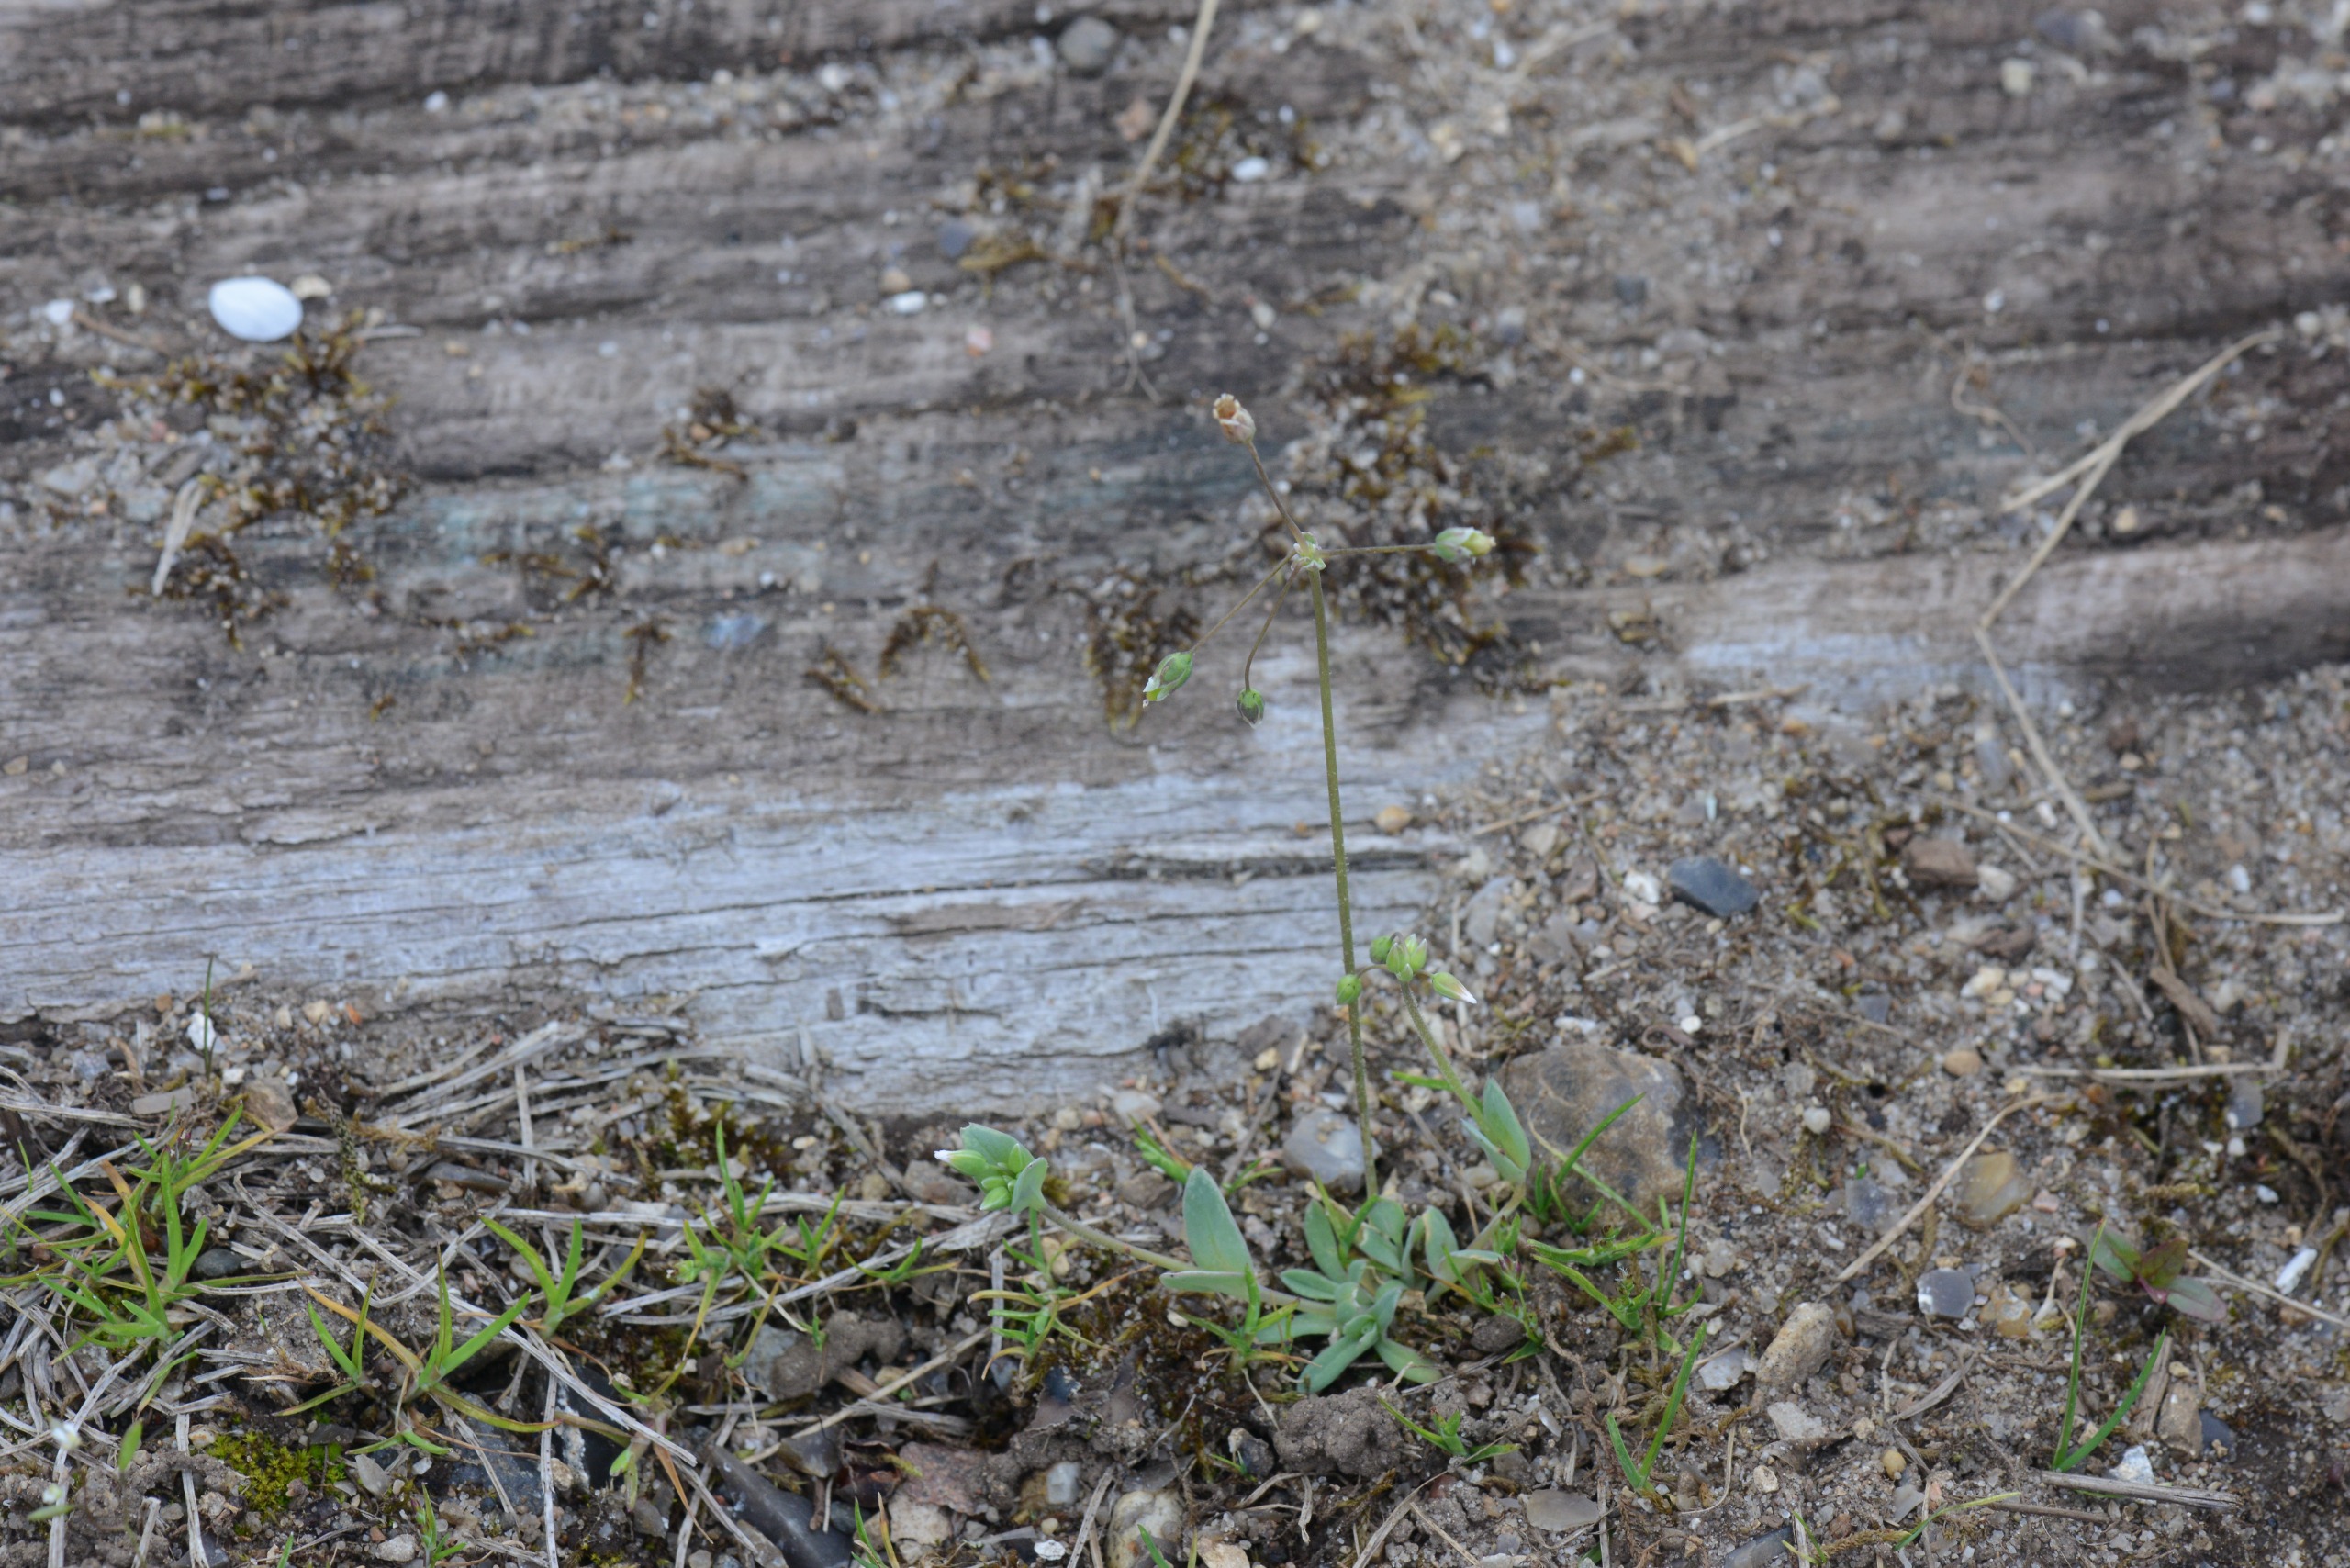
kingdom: Plantae
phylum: Tracheophyta
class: Magnoliopsida
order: Caryophyllales
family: Caryophyllaceae
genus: Holosteum
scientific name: Holosteum umbellatum
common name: Skærmarve
